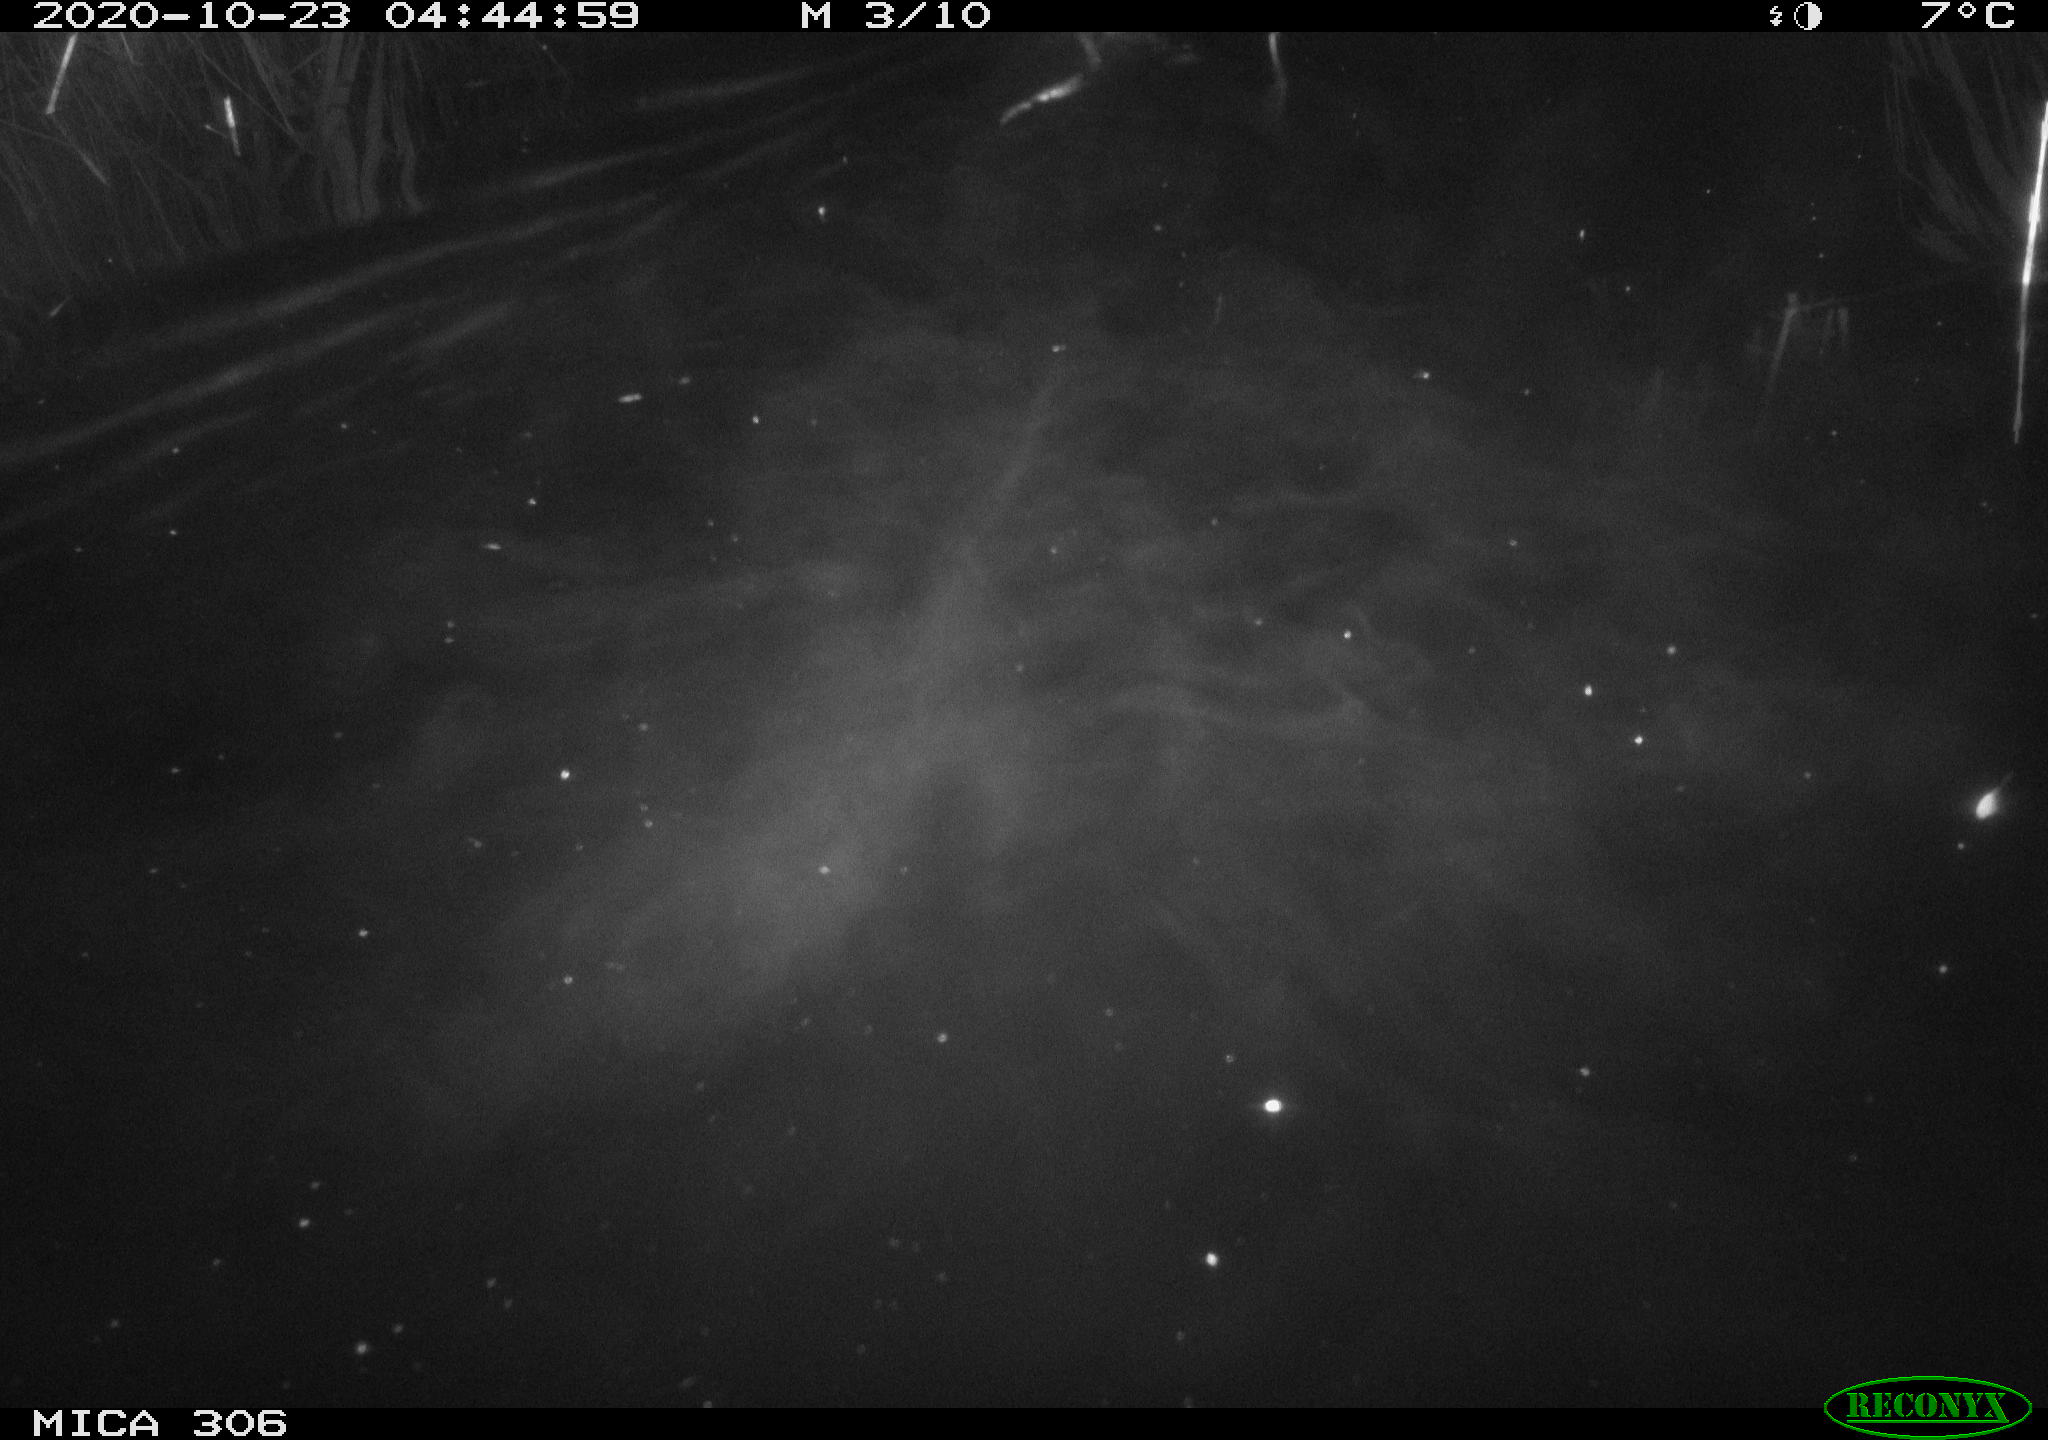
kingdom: Animalia
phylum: Chordata
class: Mammalia
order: Rodentia
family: Cricetidae
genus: Ondatra
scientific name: Ondatra zibethicus
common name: Muskrat
